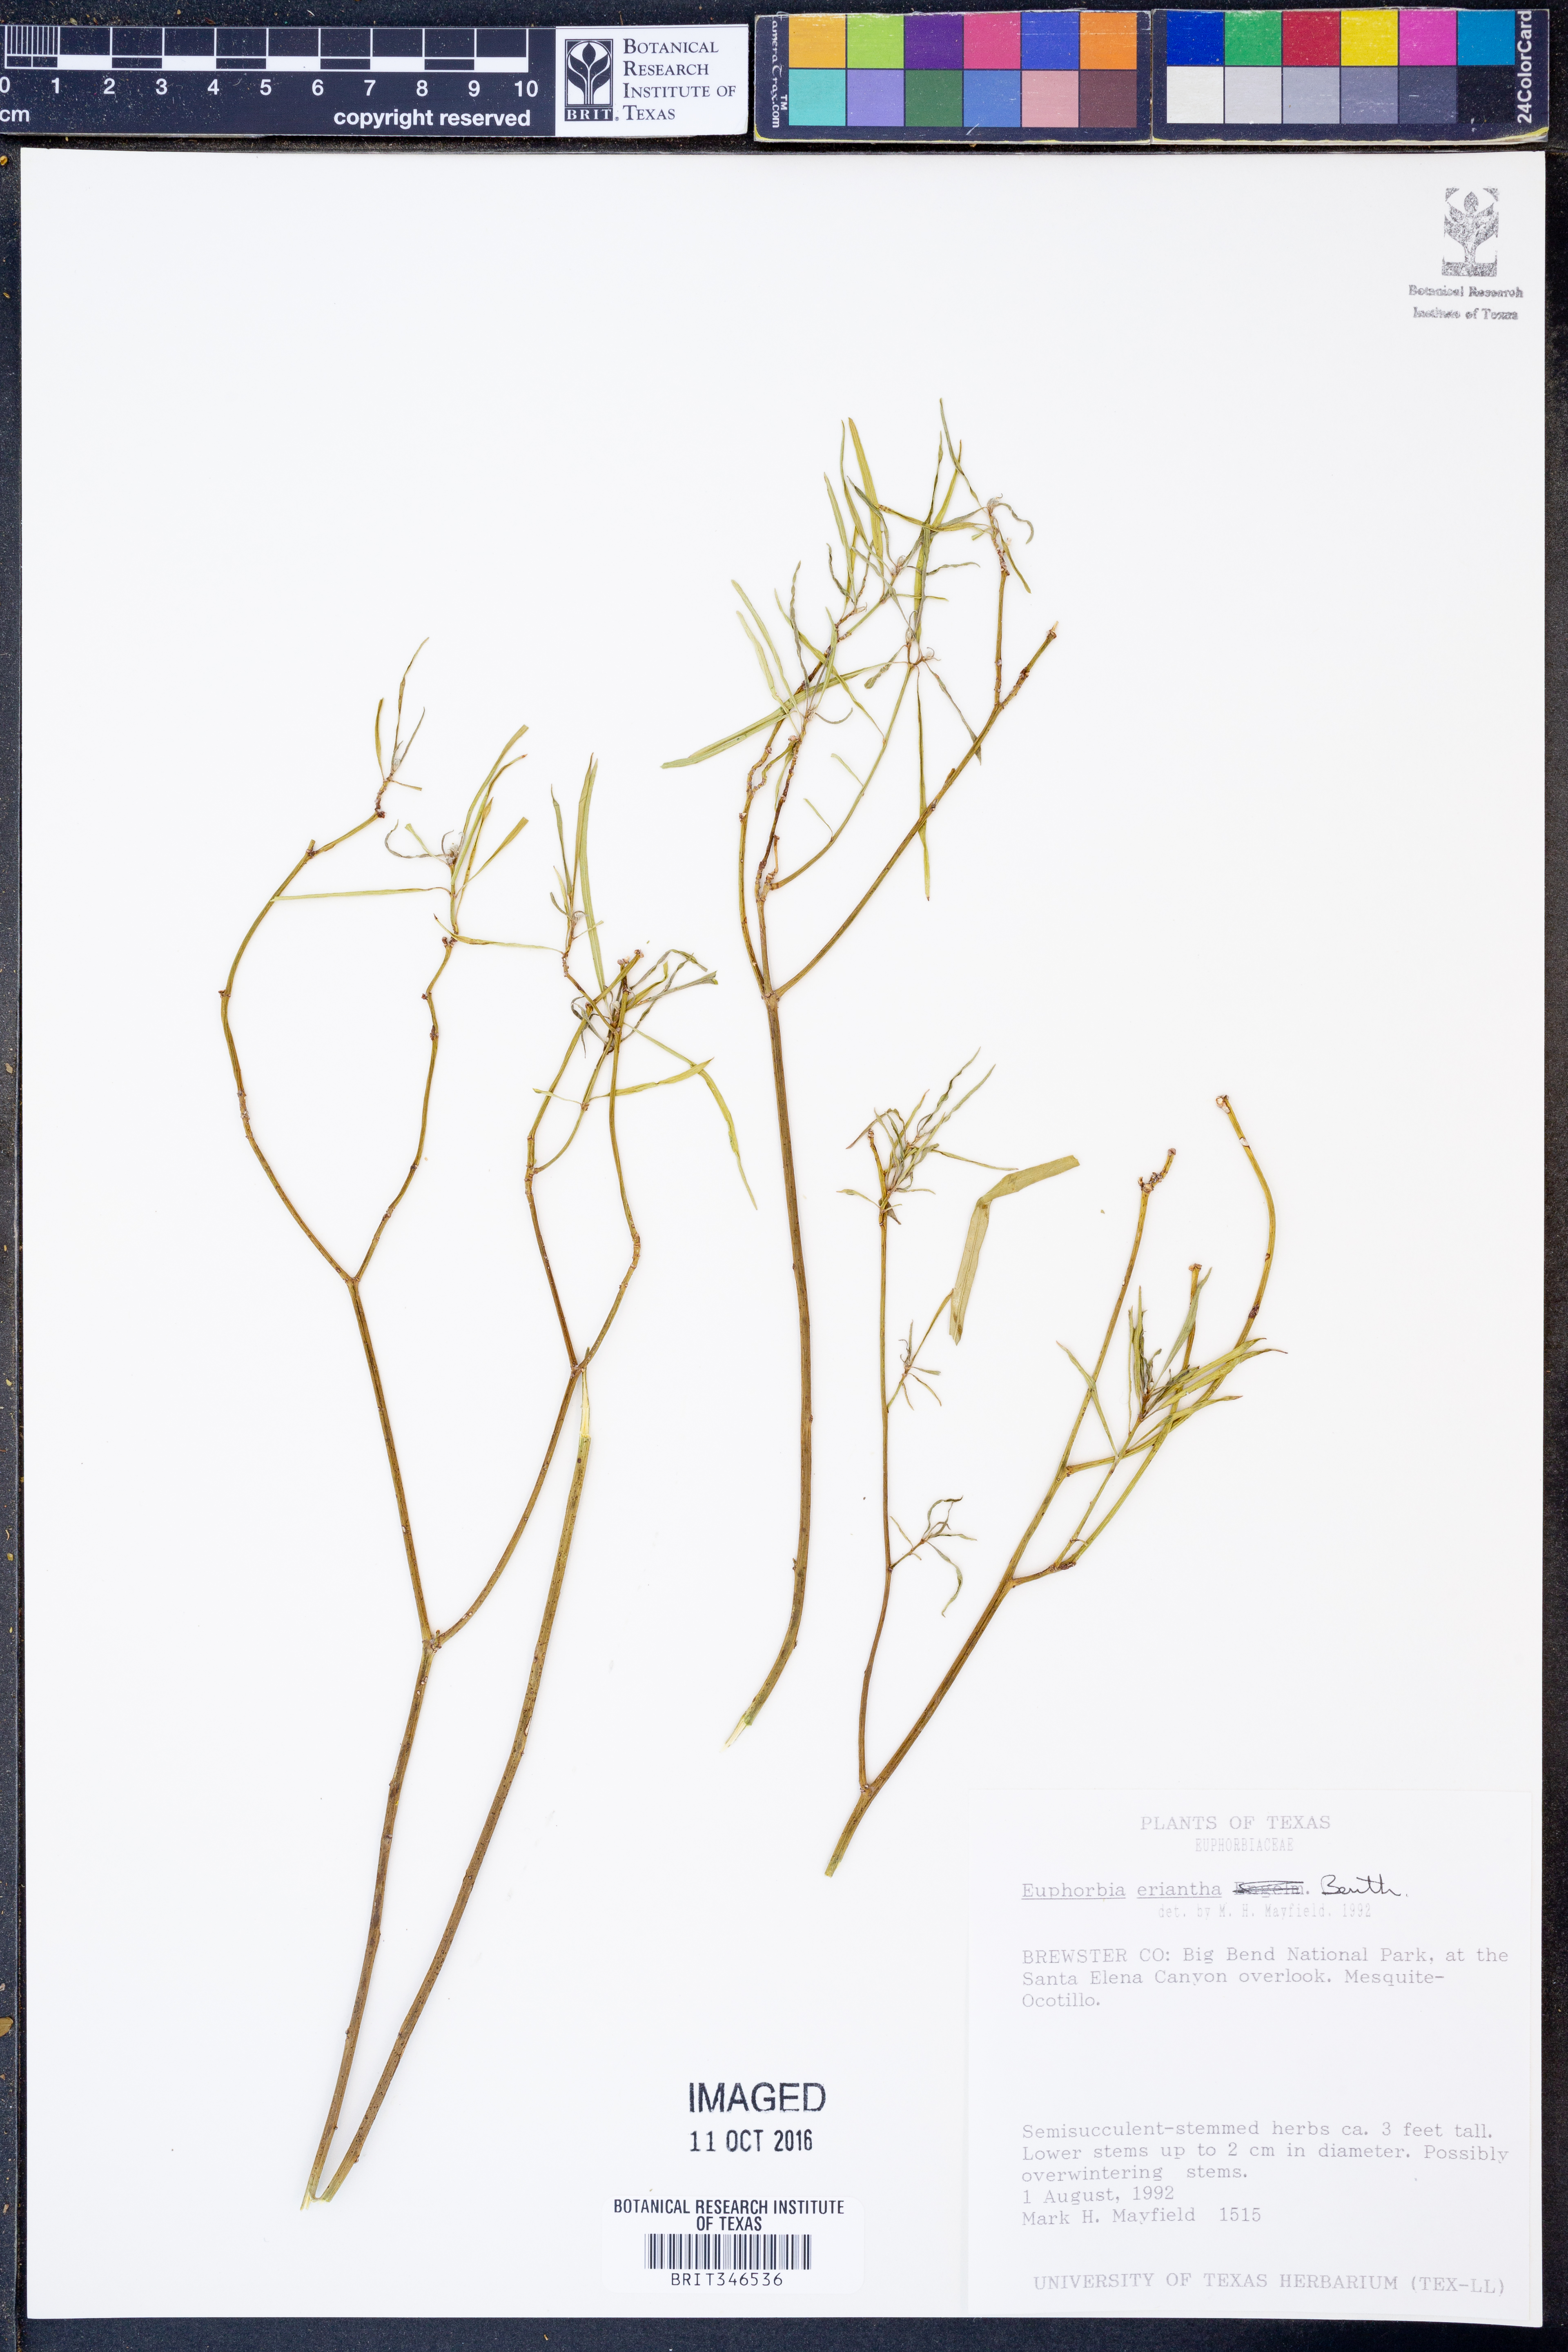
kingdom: Plantae
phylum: Tracheophyta
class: Magnoliopsida
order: Malpighiales
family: Euphorbiaceae
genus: Euphorbia
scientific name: Euphorbia eriantha
